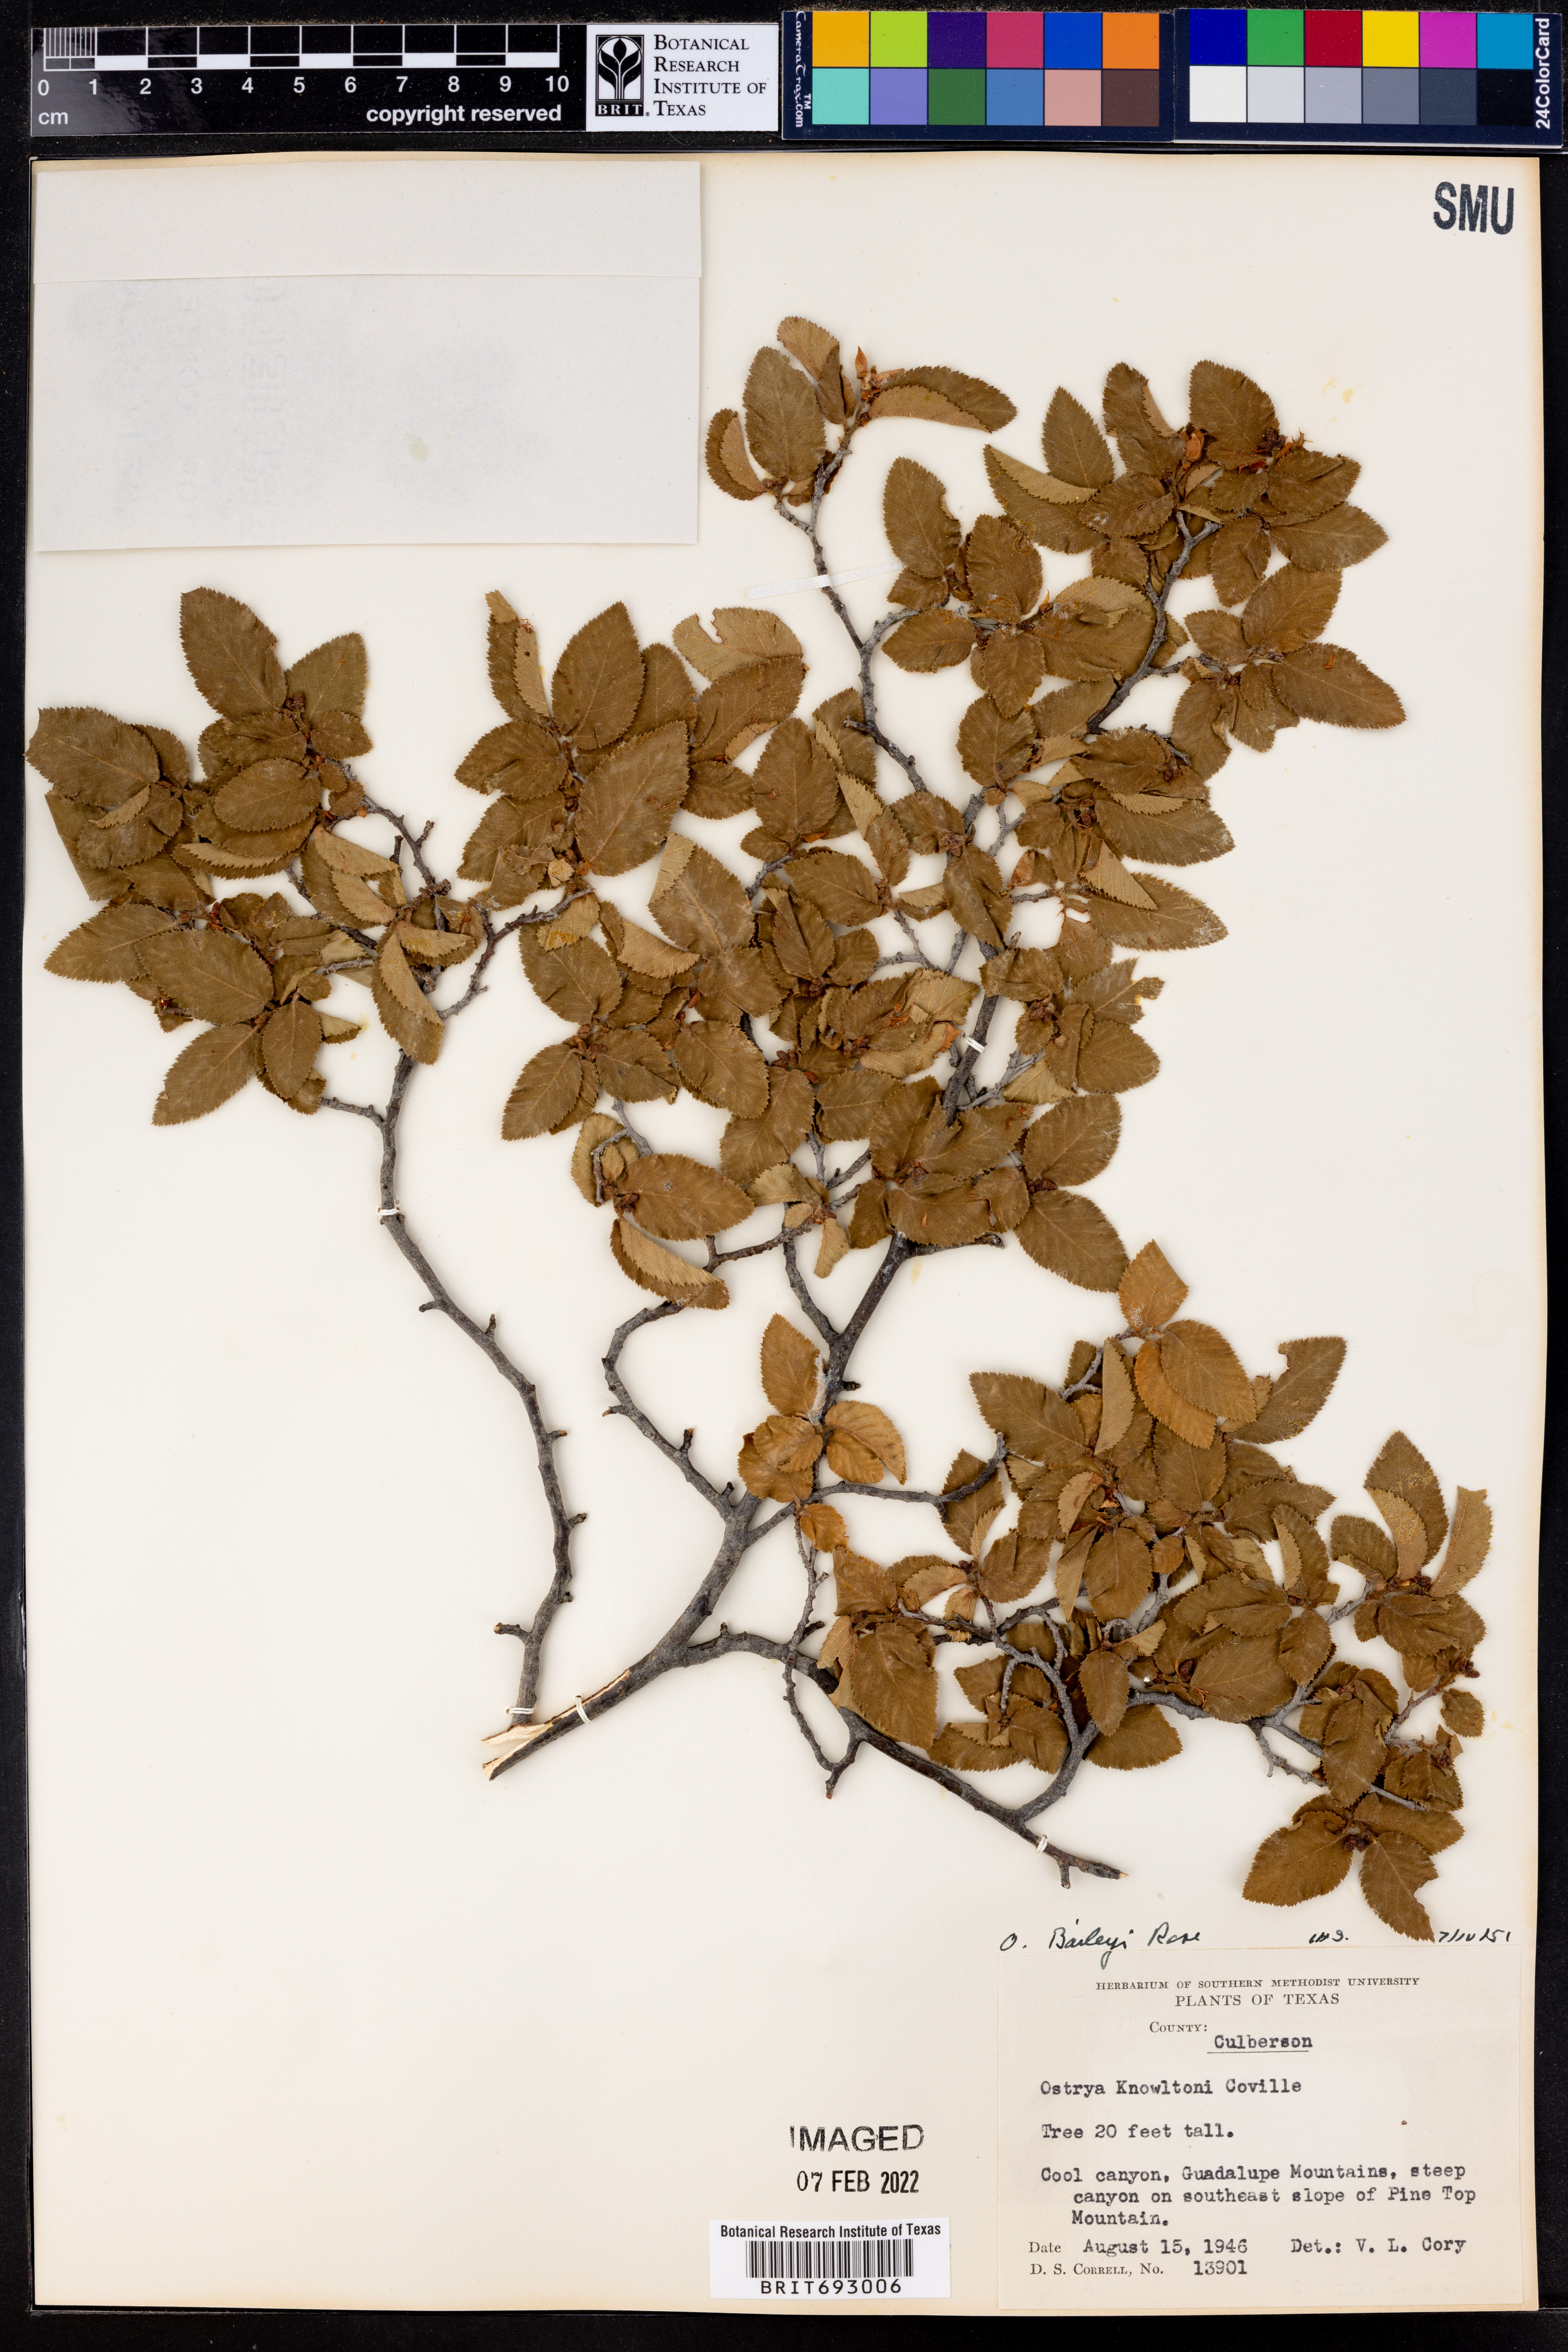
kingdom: Plantae
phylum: Tracheophyta
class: Magnoliopsida
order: Fagales
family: Betulaceae
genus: Ostrya
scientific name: Ostrya virginiana
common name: Ironwood
